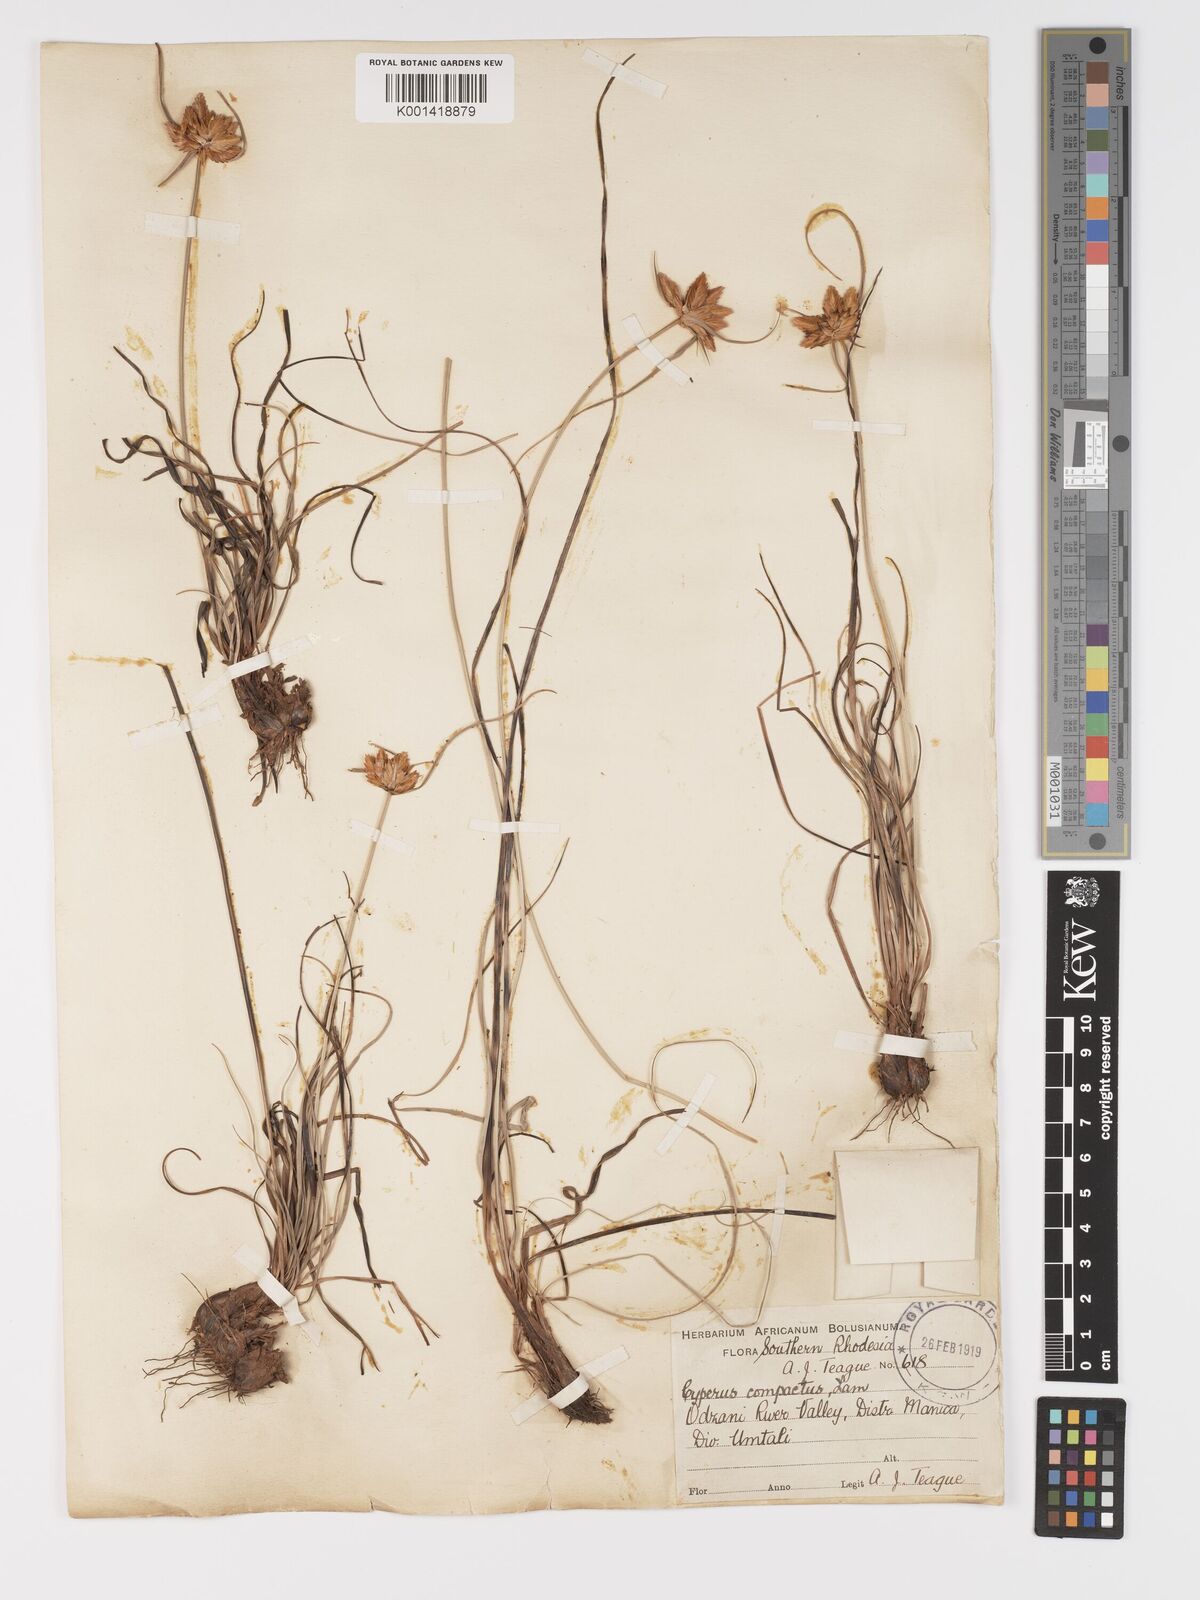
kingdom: Plantae
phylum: Tracheophyta
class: Liliopsida
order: Poales
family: Cyperaceae
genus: Cyperus
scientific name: Cyperus sphaerocephalus
